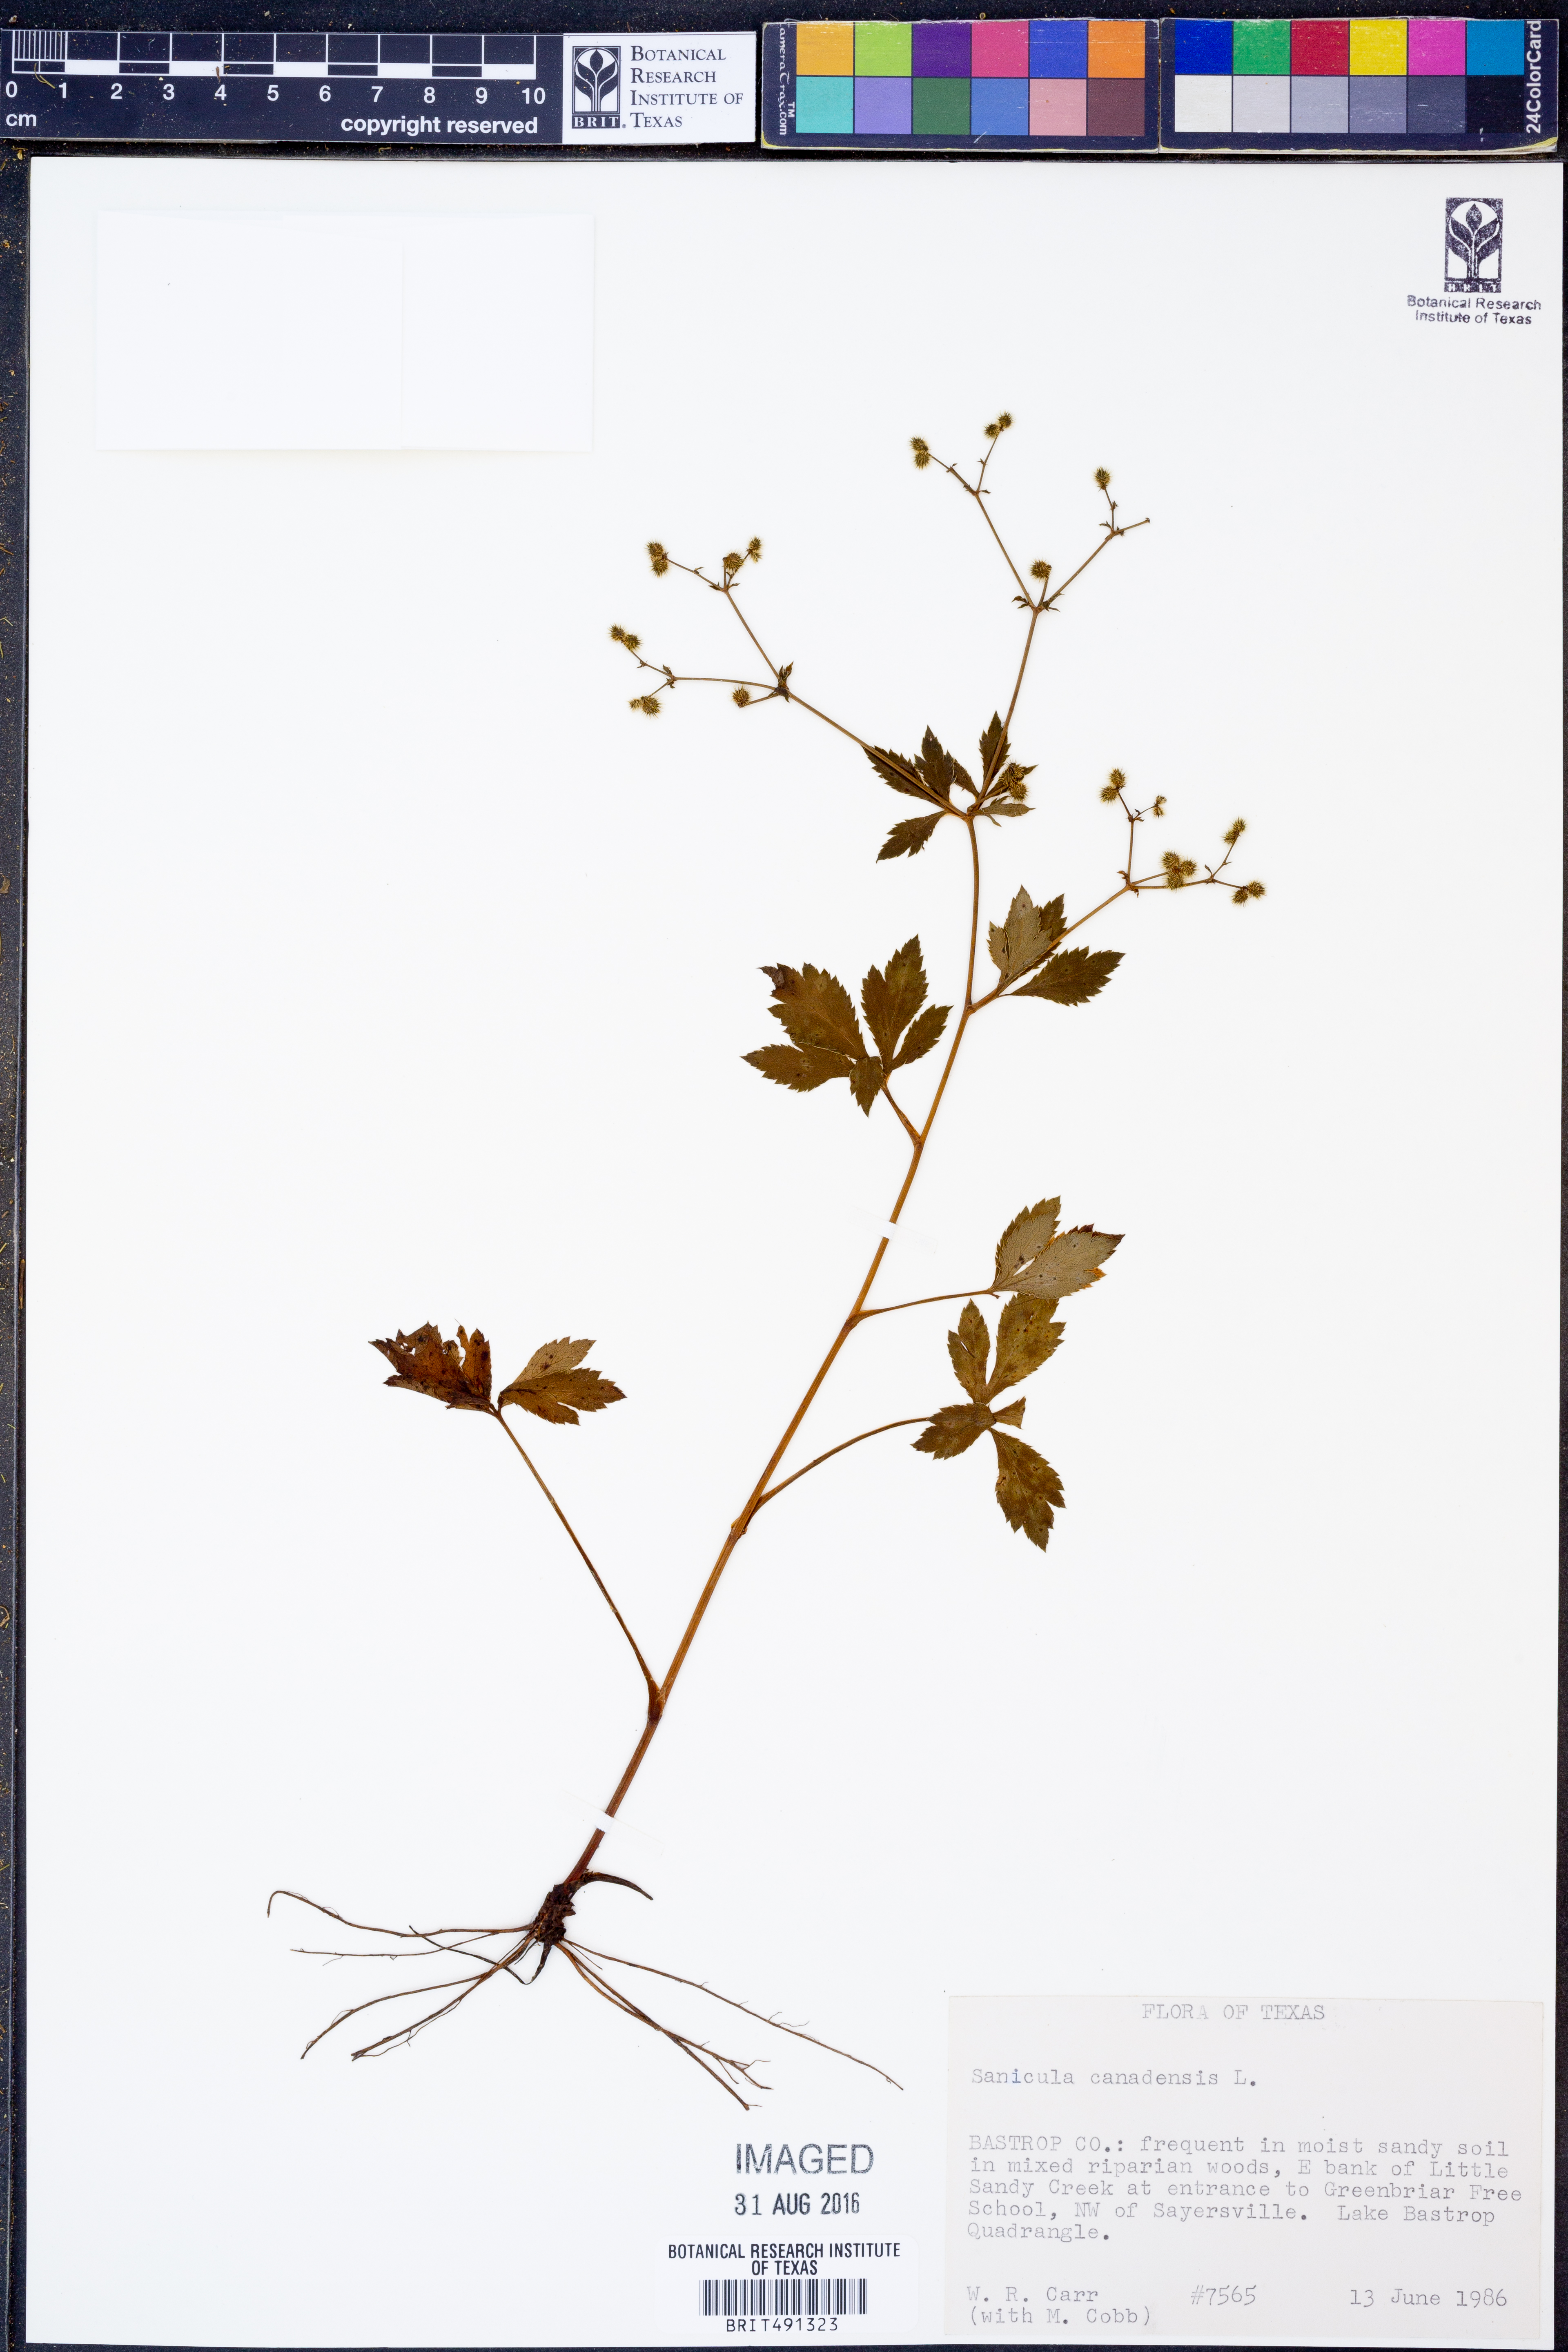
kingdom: Plantae
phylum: Tracheophyta
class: Magnoliopsida
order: Apiales
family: Apiaceae
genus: Sanicula
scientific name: Sanicula canadensis
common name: Canada sanicle
